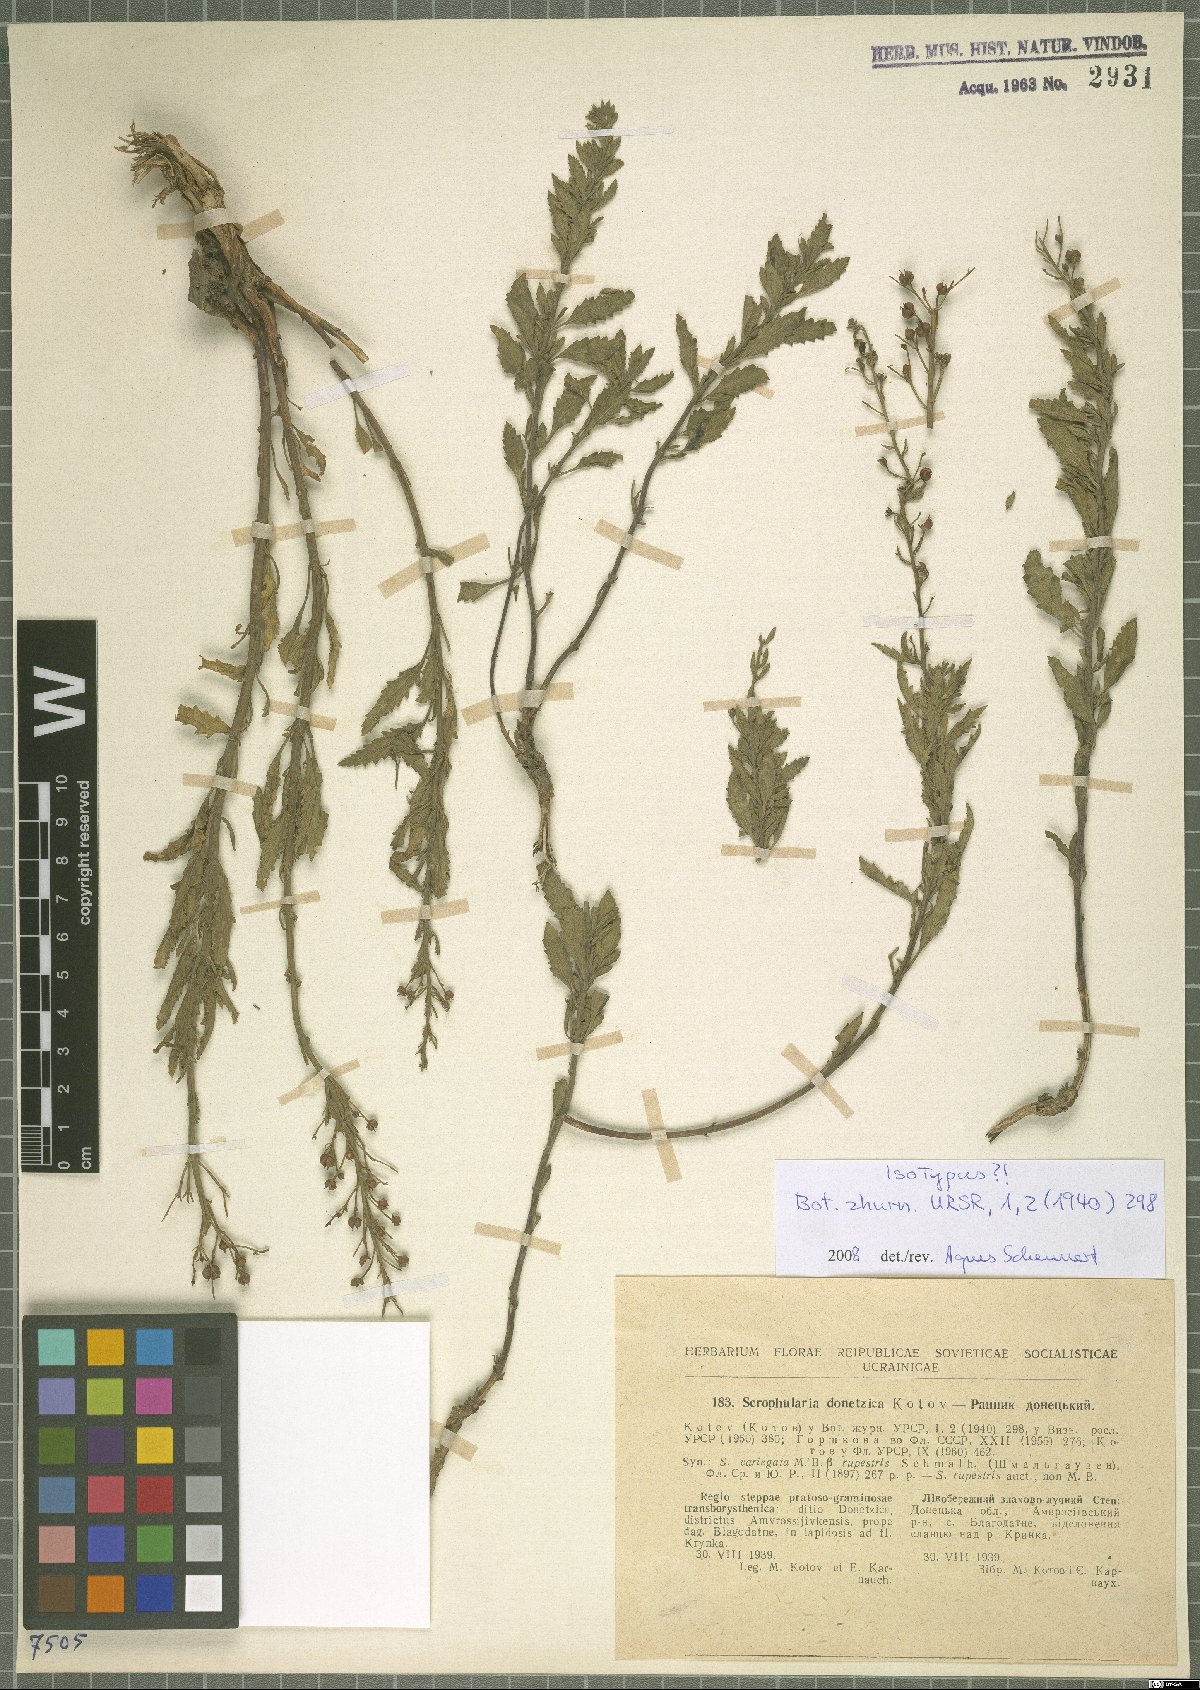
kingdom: Plantae
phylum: Tracheophyta
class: Magnoliopsida
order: Lamiales
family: Scrophulariaceae
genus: Scrophularia
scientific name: Scrophularia rupestris
